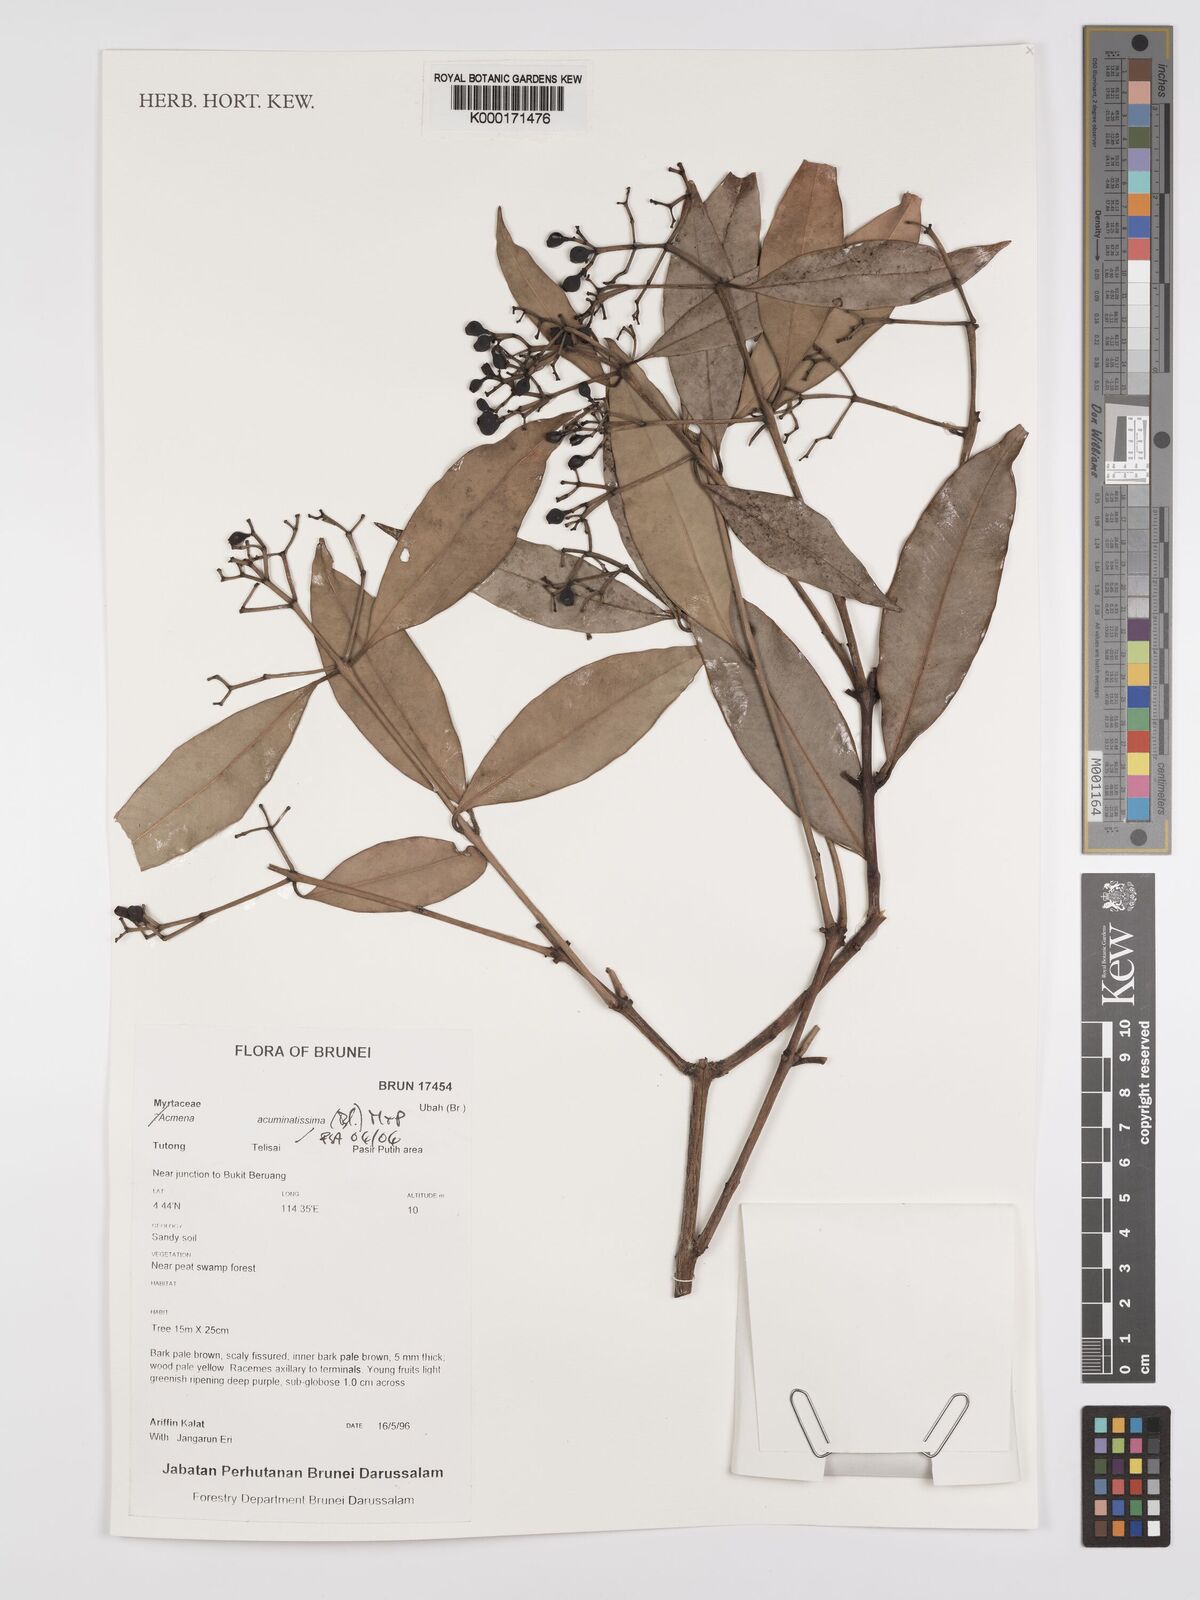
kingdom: Plantae
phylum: Tracheophyta
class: Magnoliopsida
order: Myrtales
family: Myrtaceae
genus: Syzygium
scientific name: Syzygium acuminatissimum
